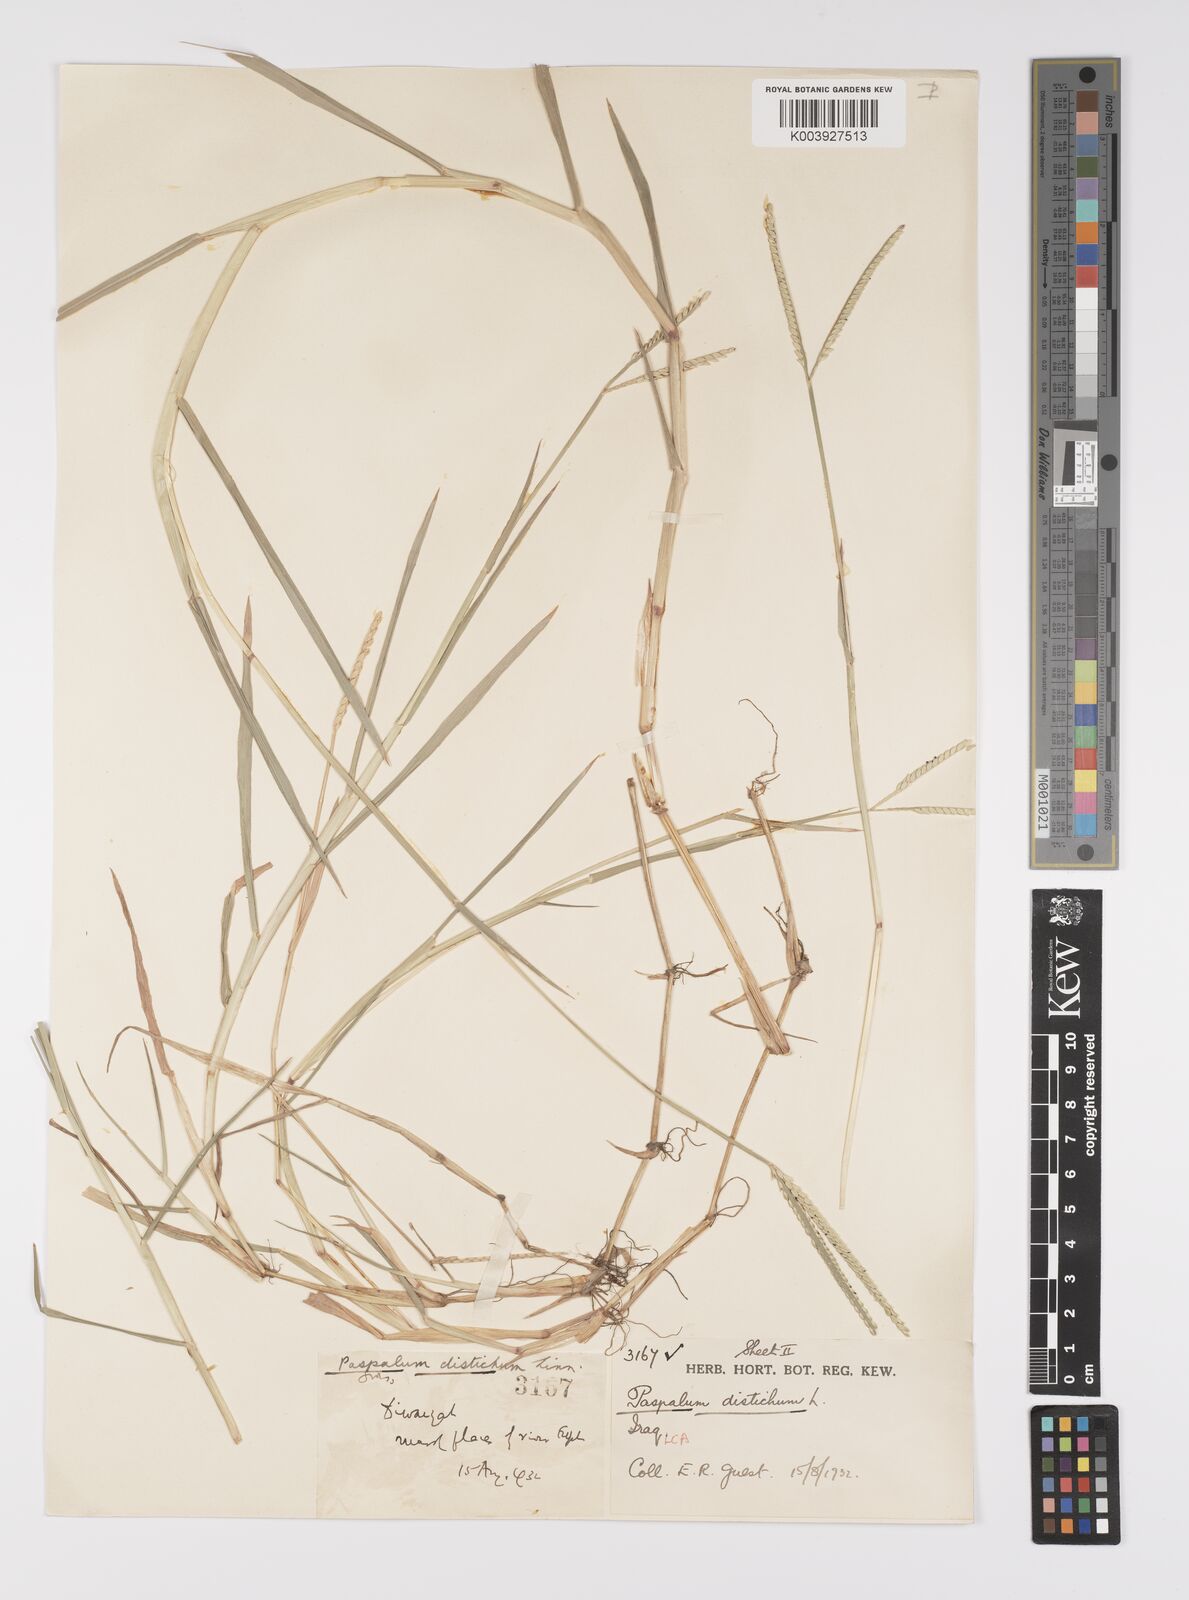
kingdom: Plantae
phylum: Tracheophyta
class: Liliopsida
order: Poales
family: Poaceae
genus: Paspalum
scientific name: Paspalum distichum
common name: Knotgrass
